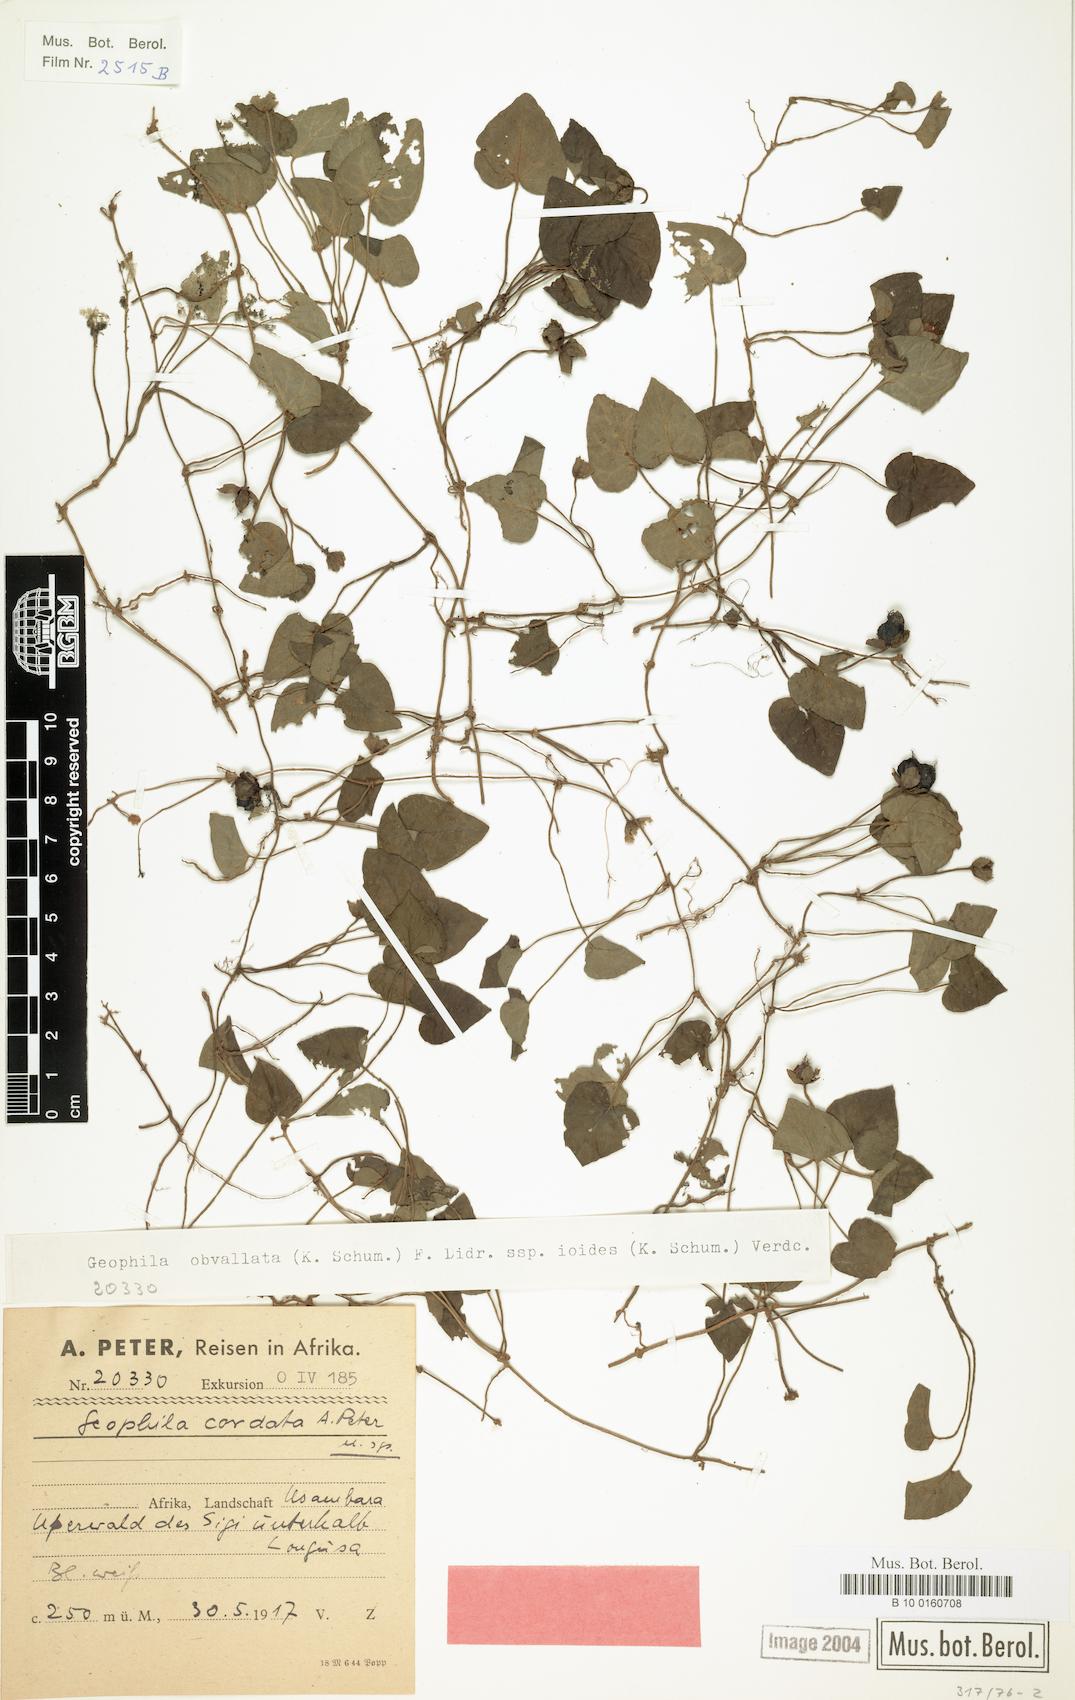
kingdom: Plantae
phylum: Tracheophyta
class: Magnoliopsida
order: Gentianales
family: Rubiaceae
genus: Geophila
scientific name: Geophila obvallata
